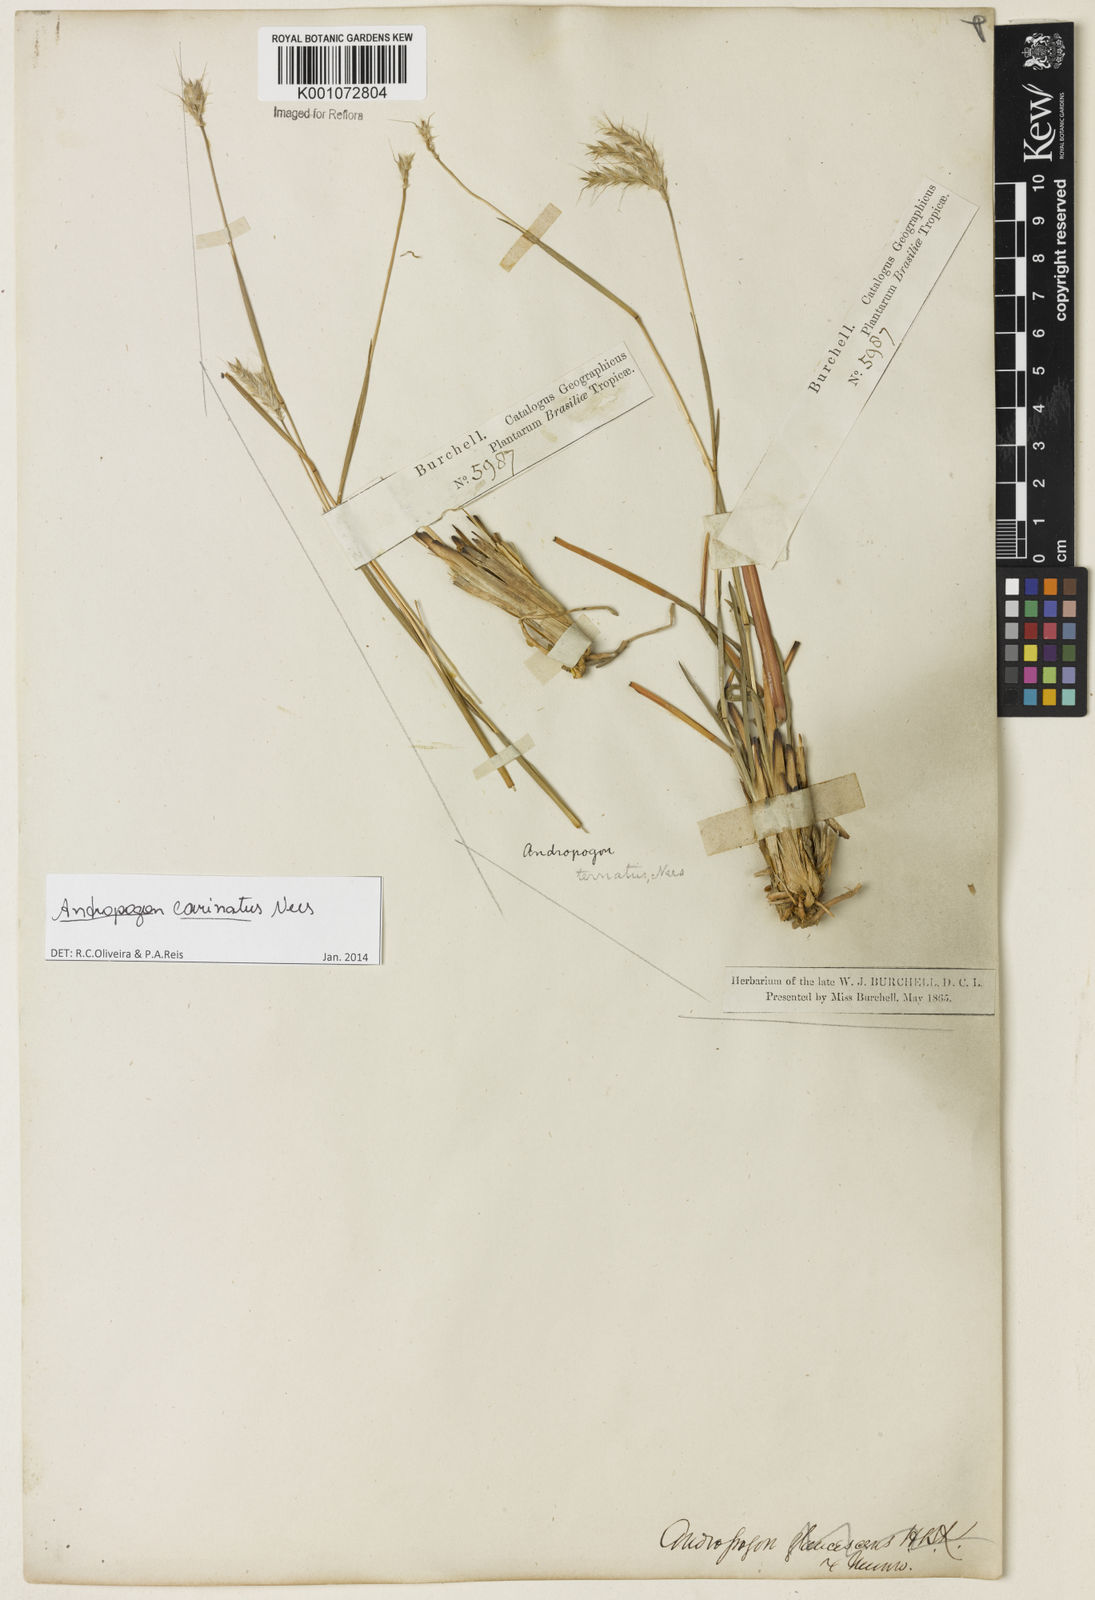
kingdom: Plantae
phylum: Tracheophyta
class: Liliopsida
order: Poales
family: Poaceae
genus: Andropogon
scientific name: Andropogon carinatus
